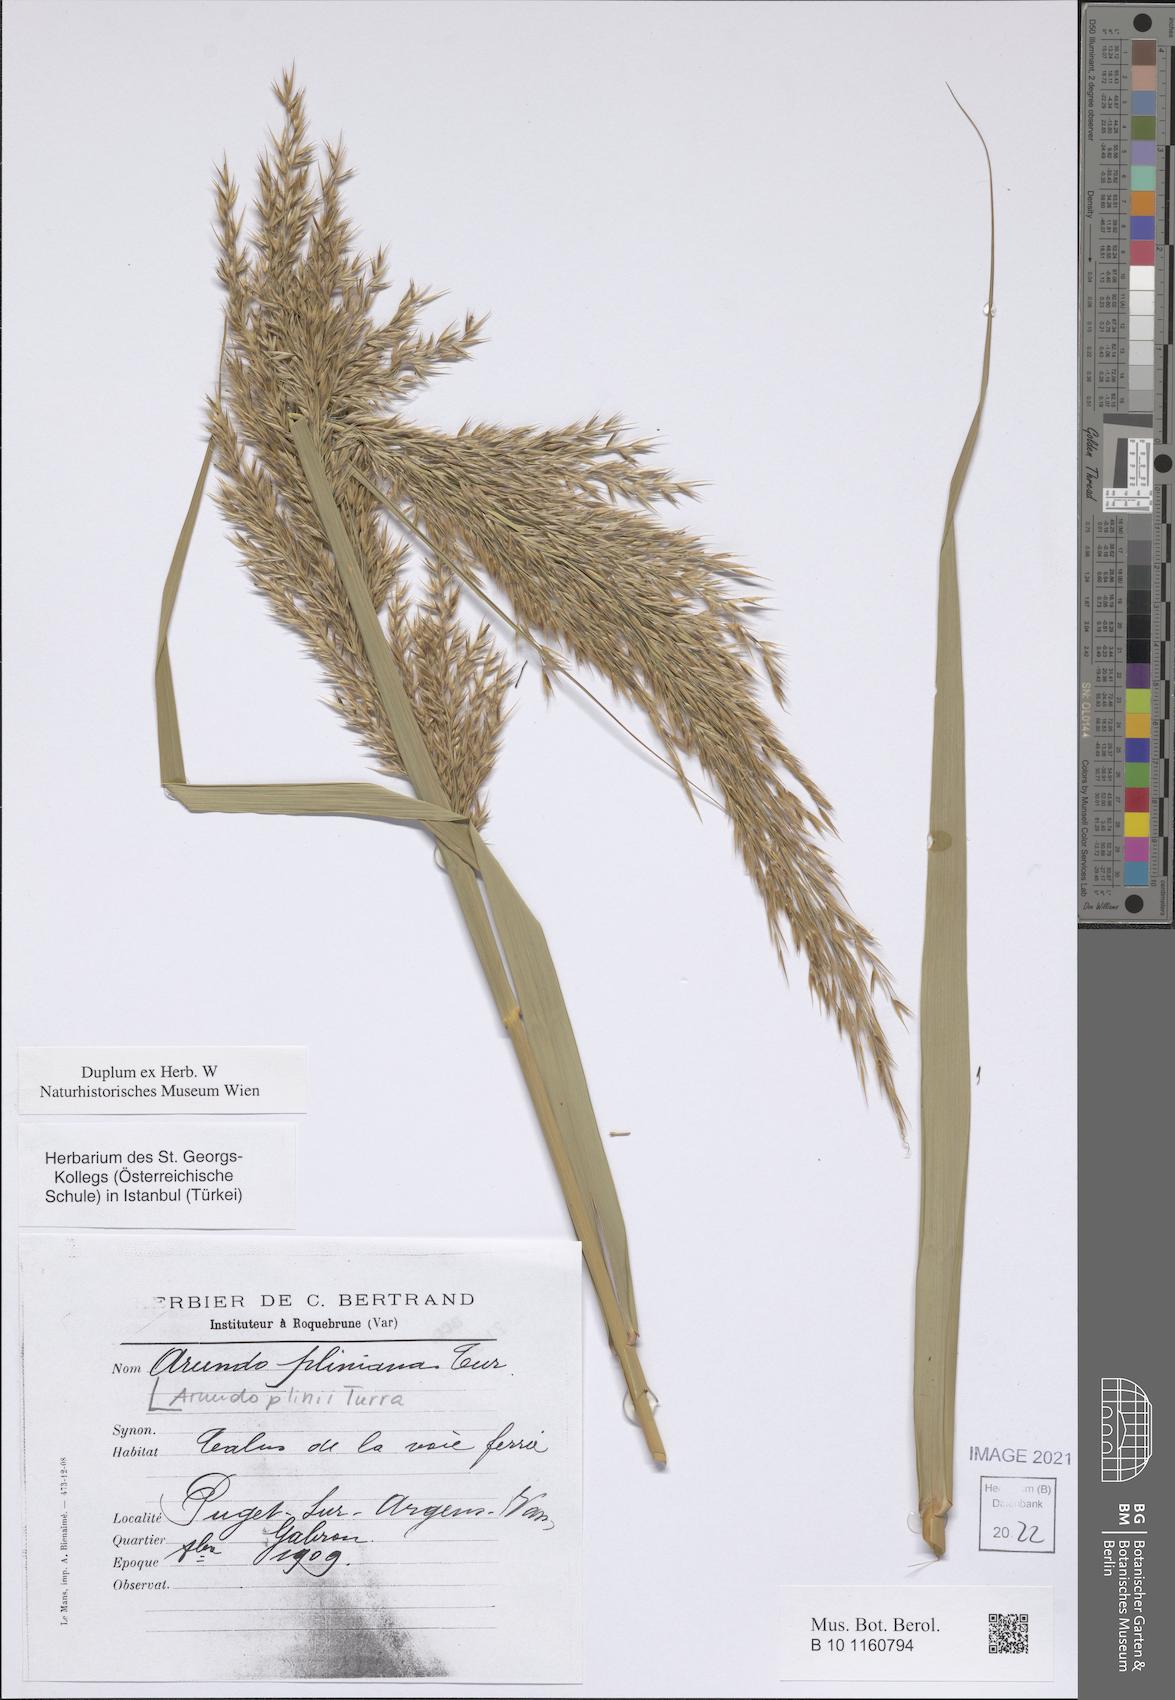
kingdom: Plantae
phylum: Tracheophyta
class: Liliopsida
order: Poales
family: Poaceae
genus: Arundo
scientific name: Arundo plinii
